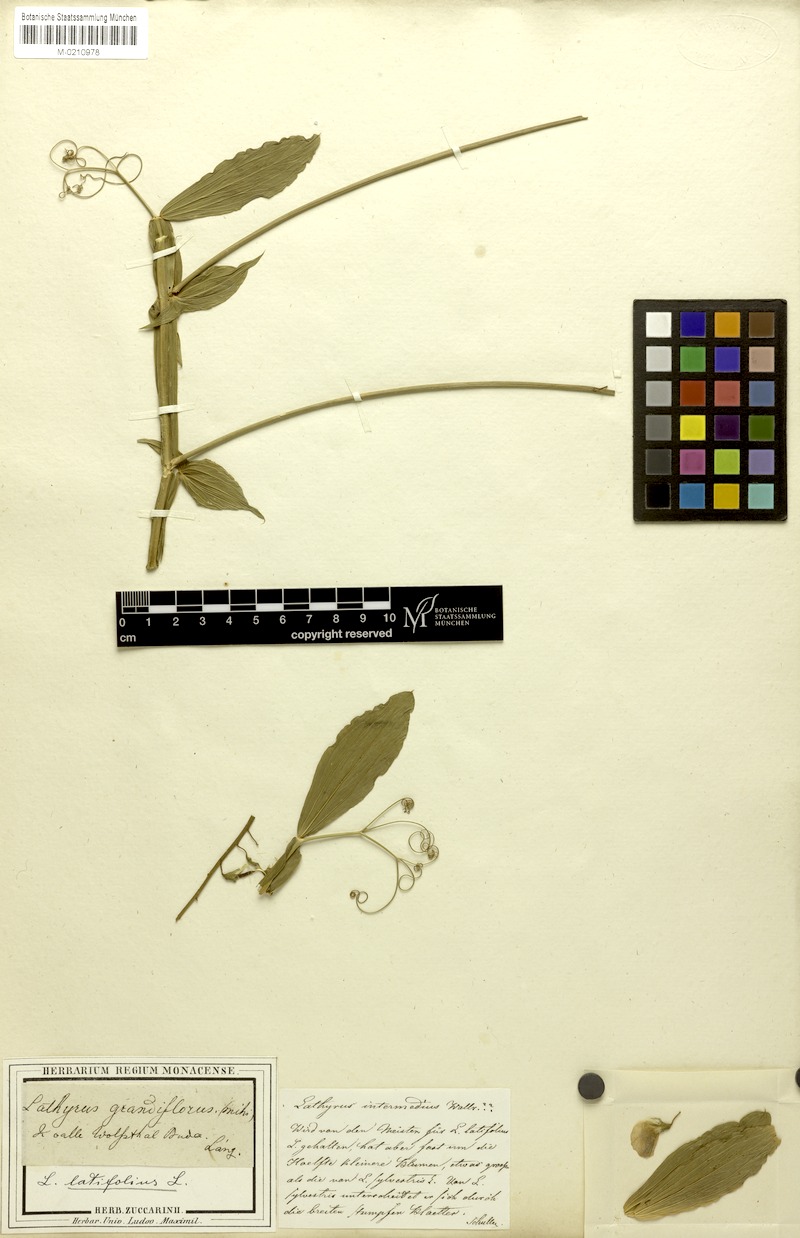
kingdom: Plantae
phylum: Tracheophyta
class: Magnoliopsida
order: Fabales
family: Fabaceae
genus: Lathyrus
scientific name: Lathyrus latifolius
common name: Perennial pea
